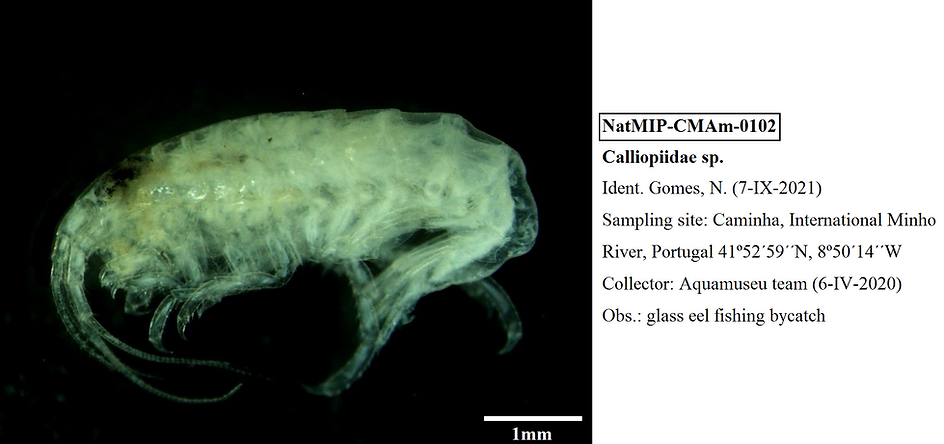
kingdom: Animalia
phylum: Arthropoda
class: Malacostraca
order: Amphipoda
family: Calliopiidae
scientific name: Calliopiidae
